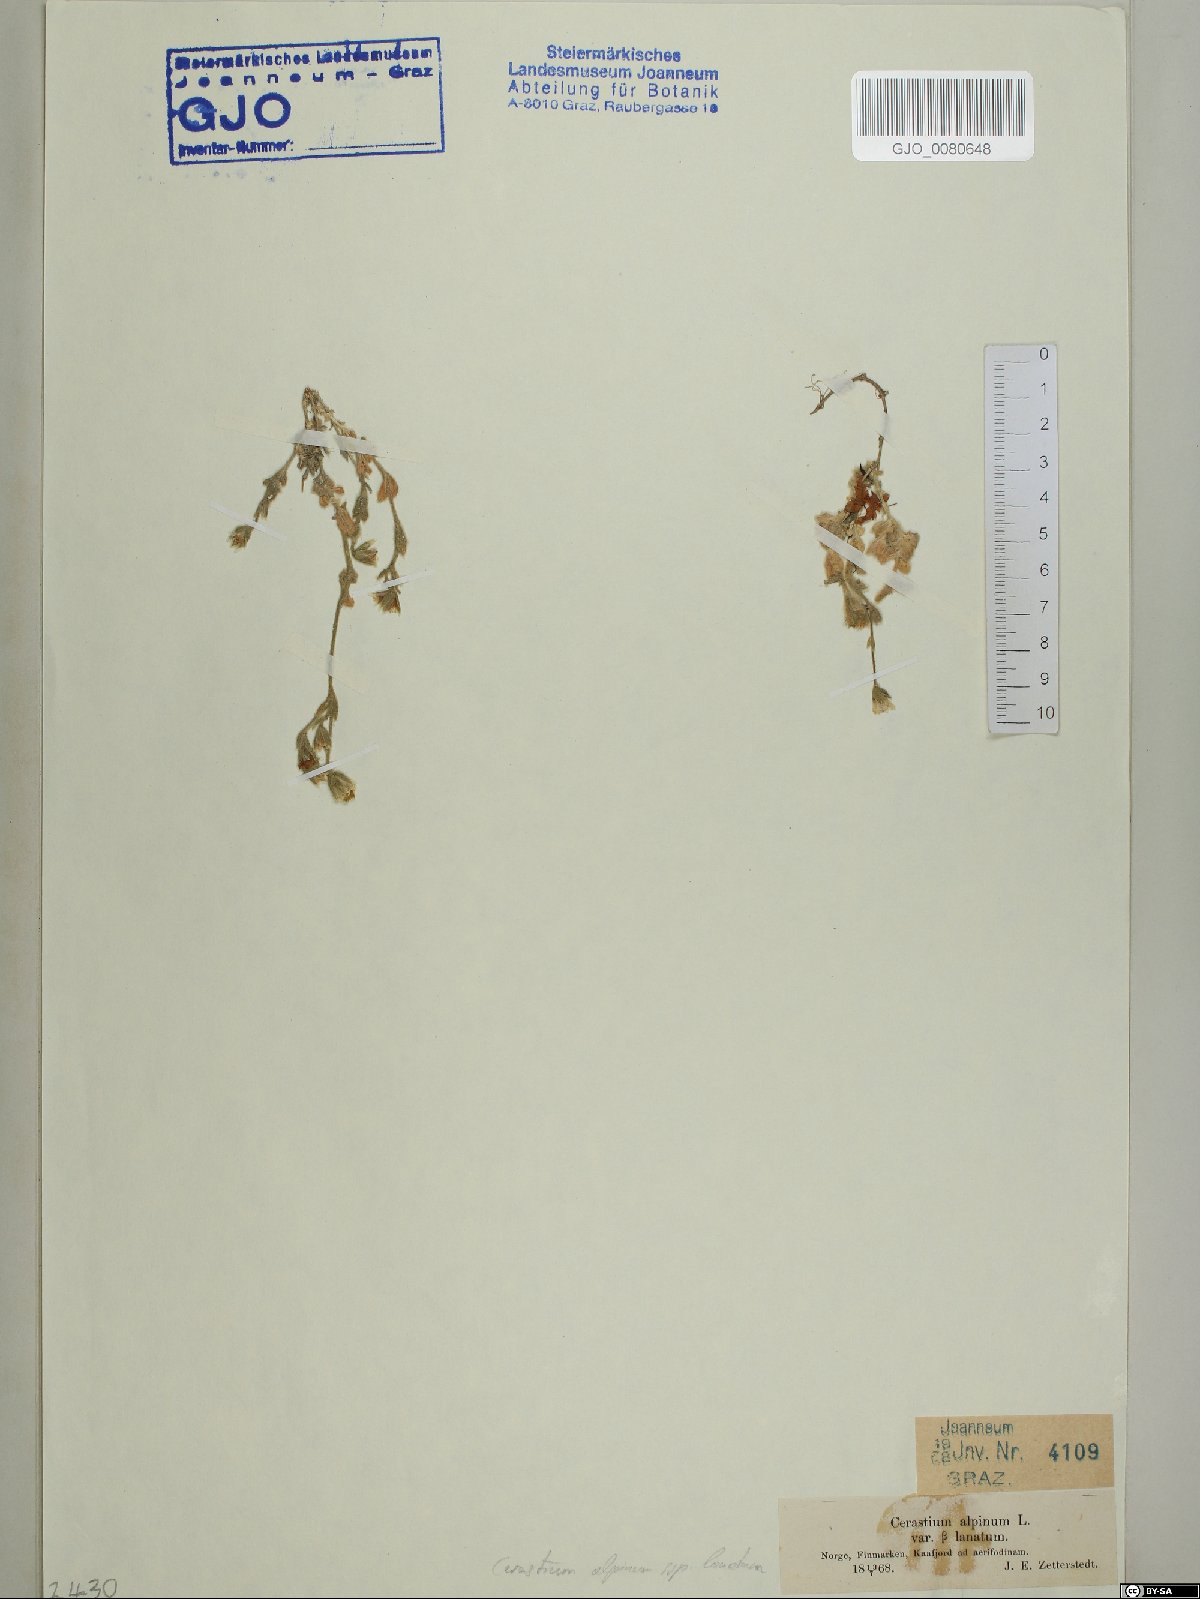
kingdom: Plantae
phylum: Tracheophyta
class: Magnoliopsida
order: Caryophyllales
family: Caryophyllaceae
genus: Cerastium
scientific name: Cerastium alpinum
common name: Alpine mouse-ear
